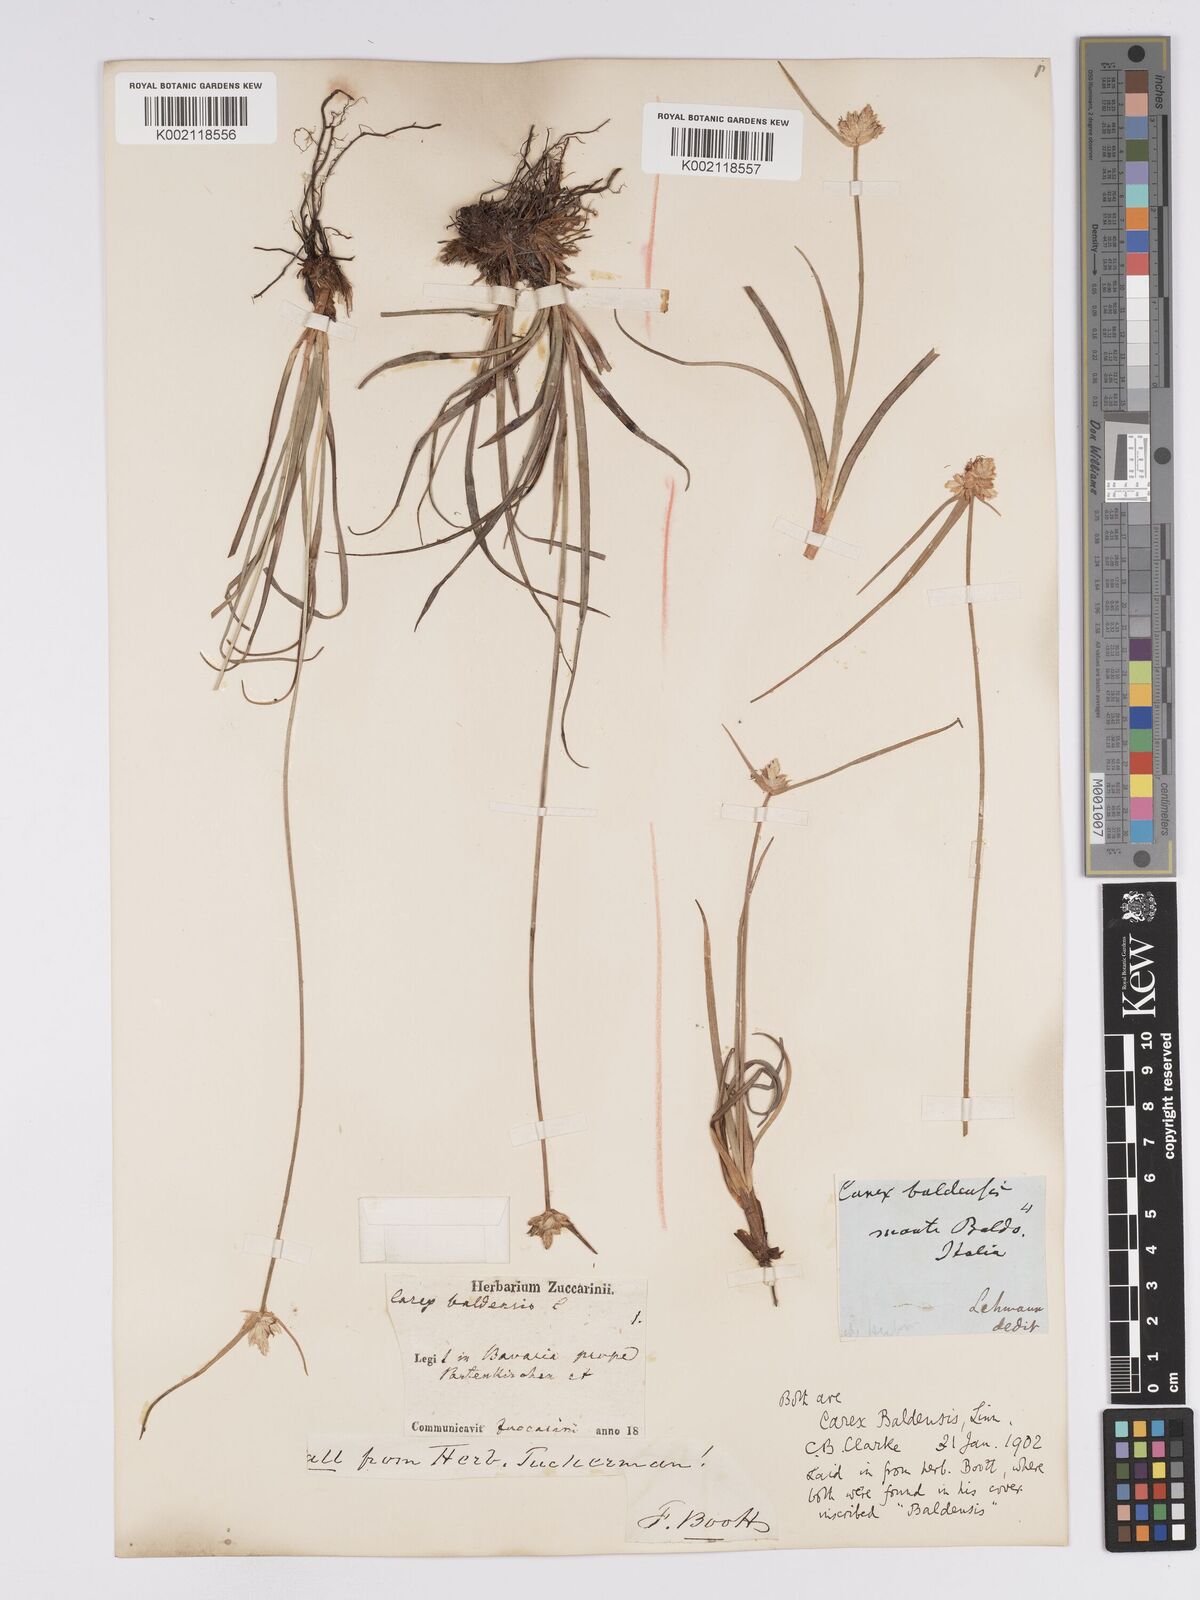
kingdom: Plantae
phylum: Tracheophyta
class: Liliopsida
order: Poales
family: Cyperaceae
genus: Carex
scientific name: Carex baldensis
